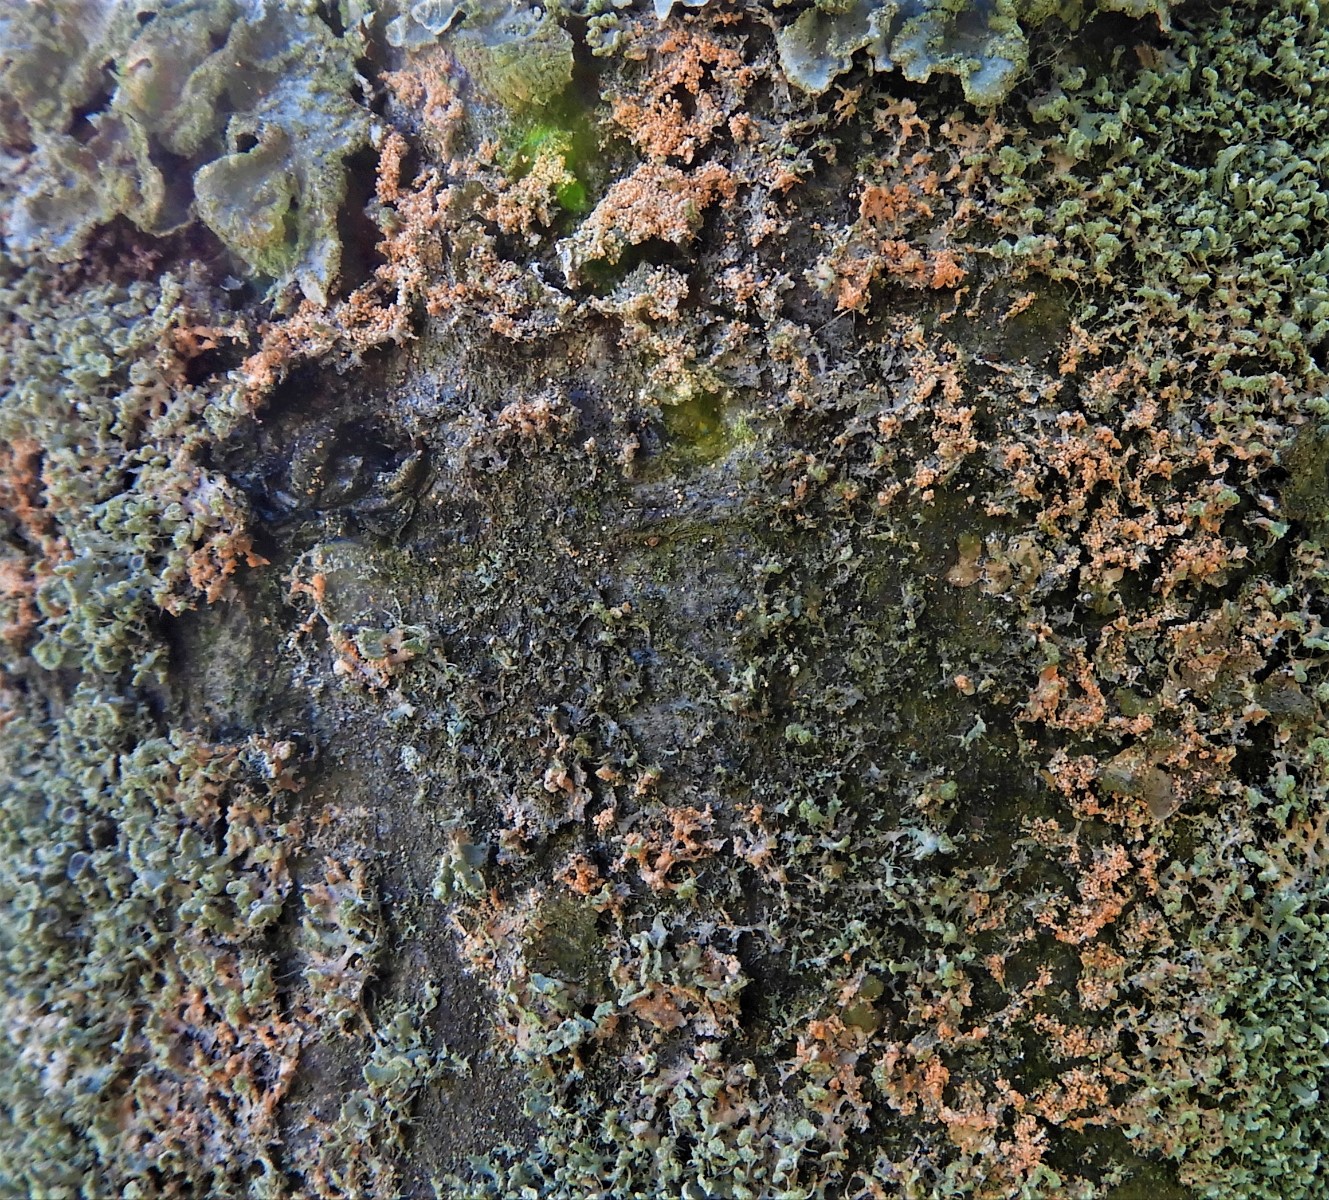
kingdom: Fungi
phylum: Basidiomycota
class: Agaricomycetes
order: Corticiales
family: Corticiaceae
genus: Erythricium
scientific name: Erythricium aurantiacum
